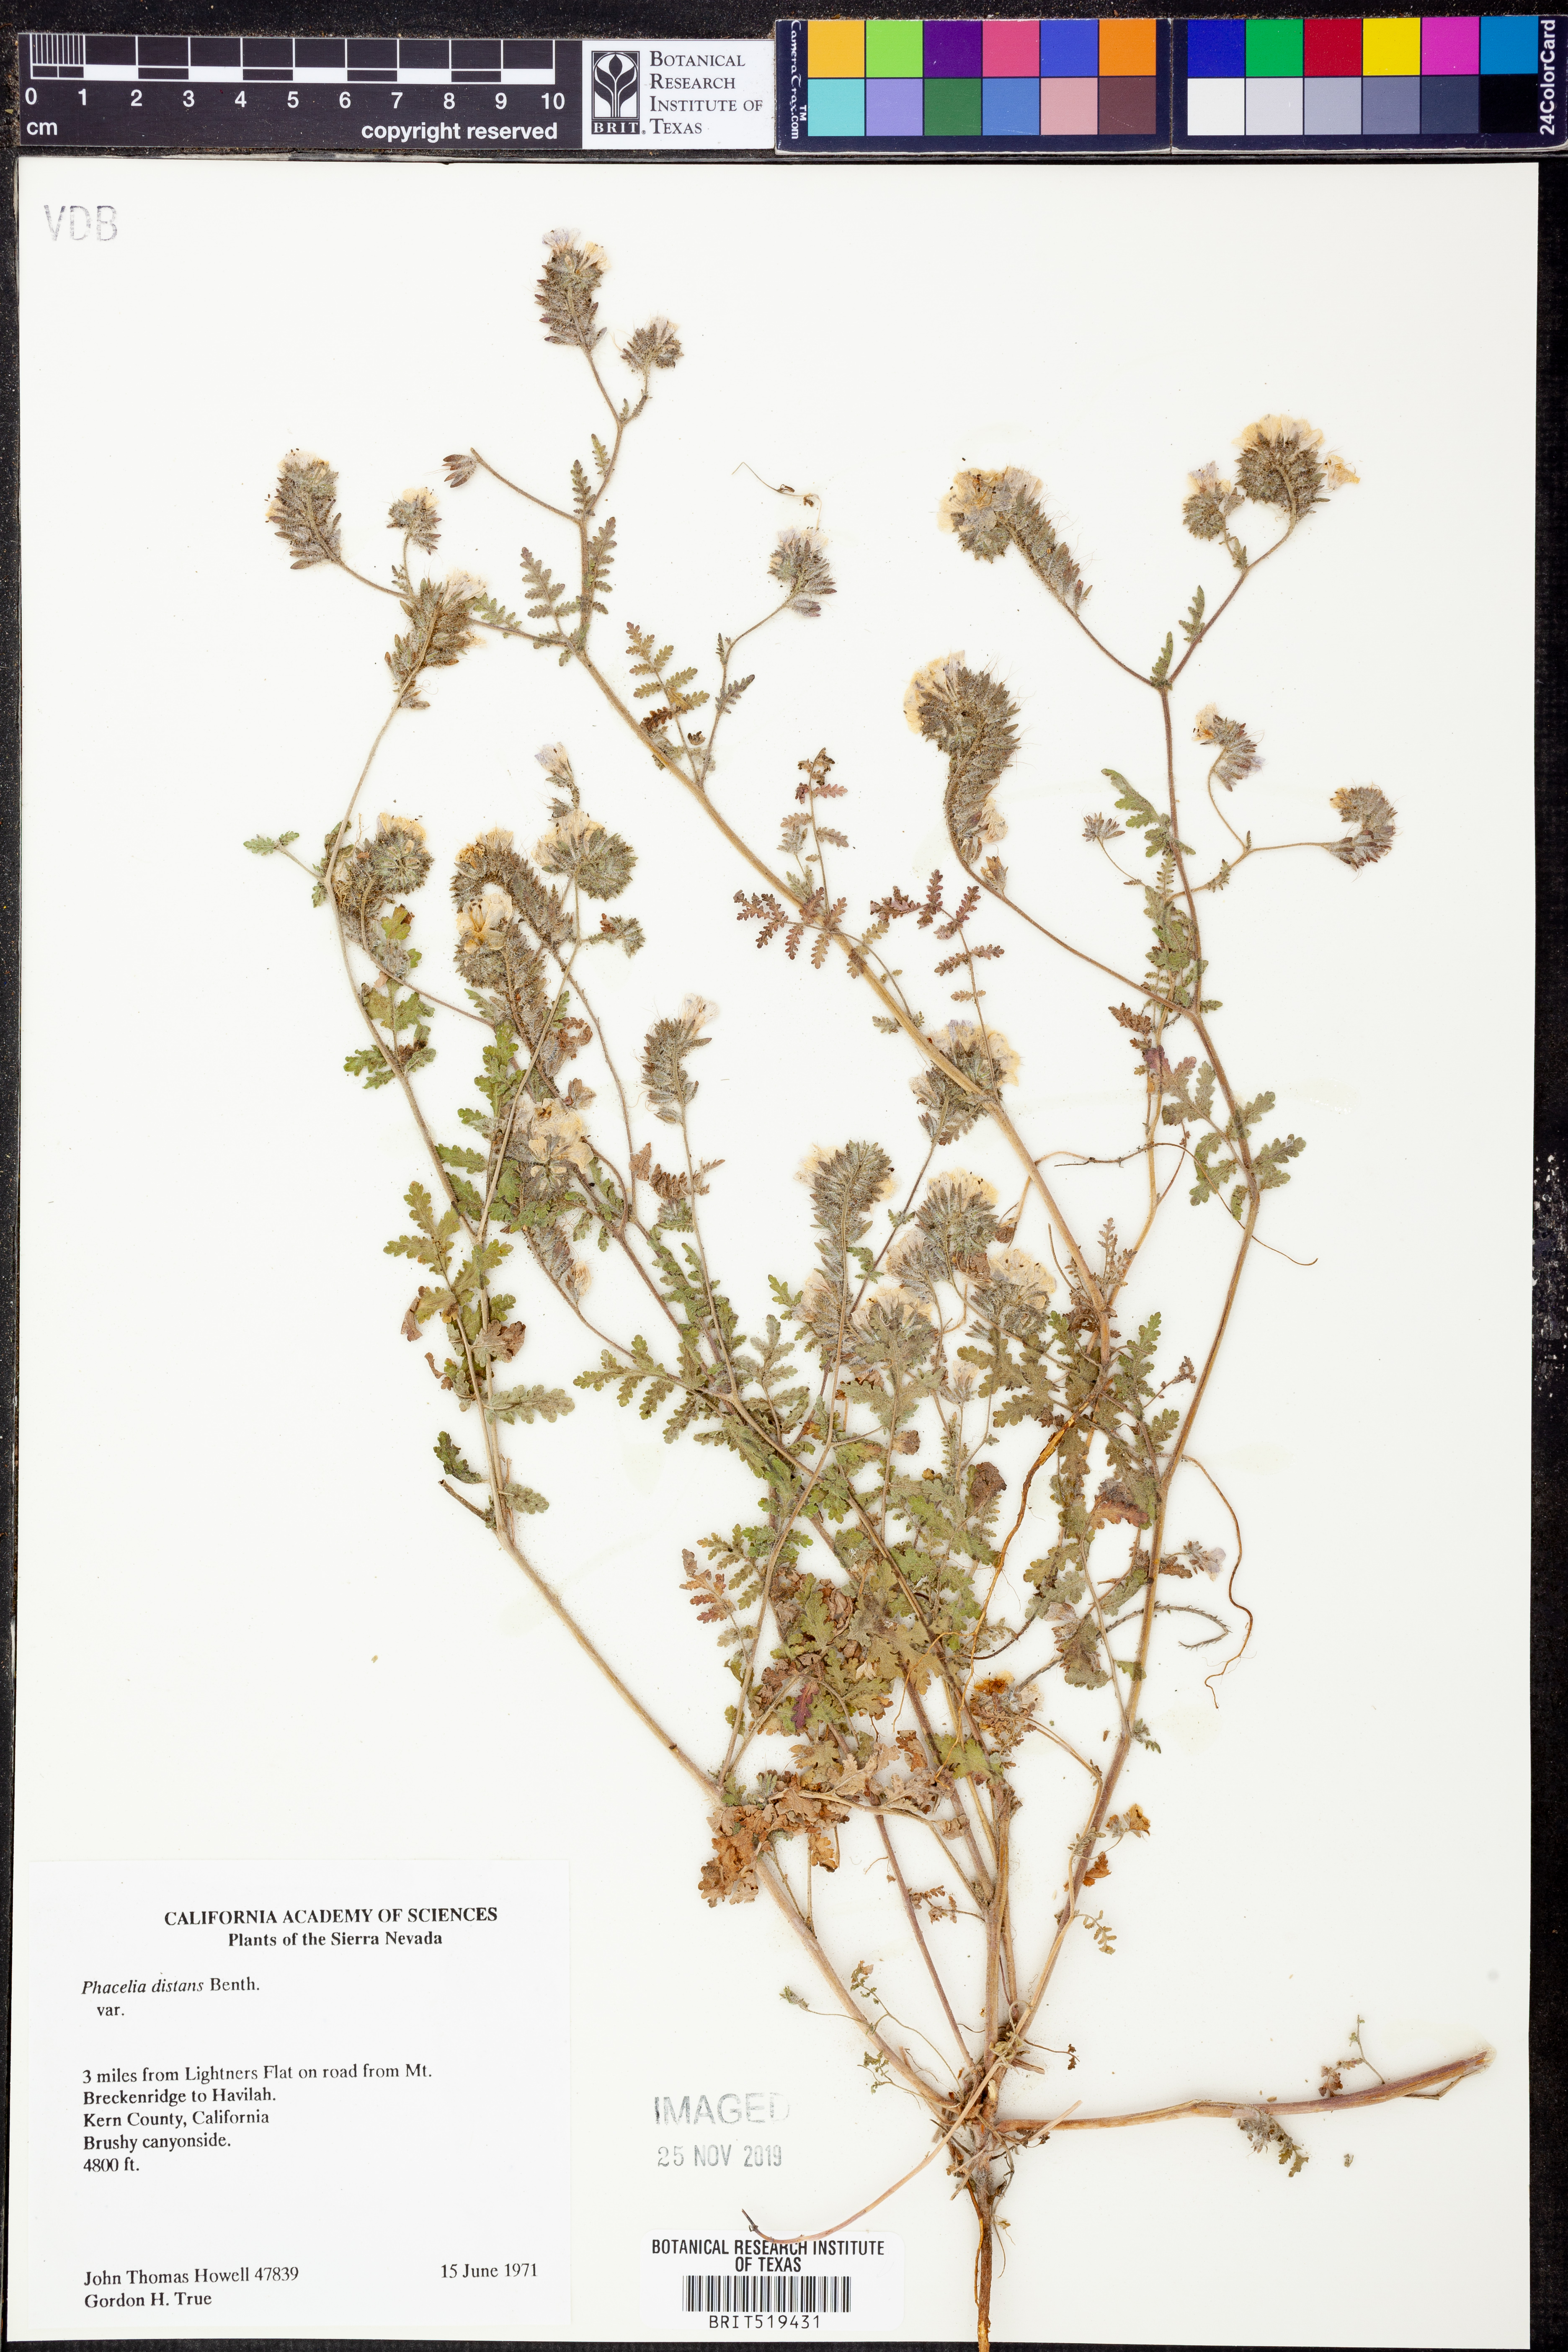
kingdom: Plantae
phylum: Tracheophyta
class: Magnoliopsida
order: Boraginales
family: Hydrophyllaceae
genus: Phacelia
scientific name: Phacelia distans
